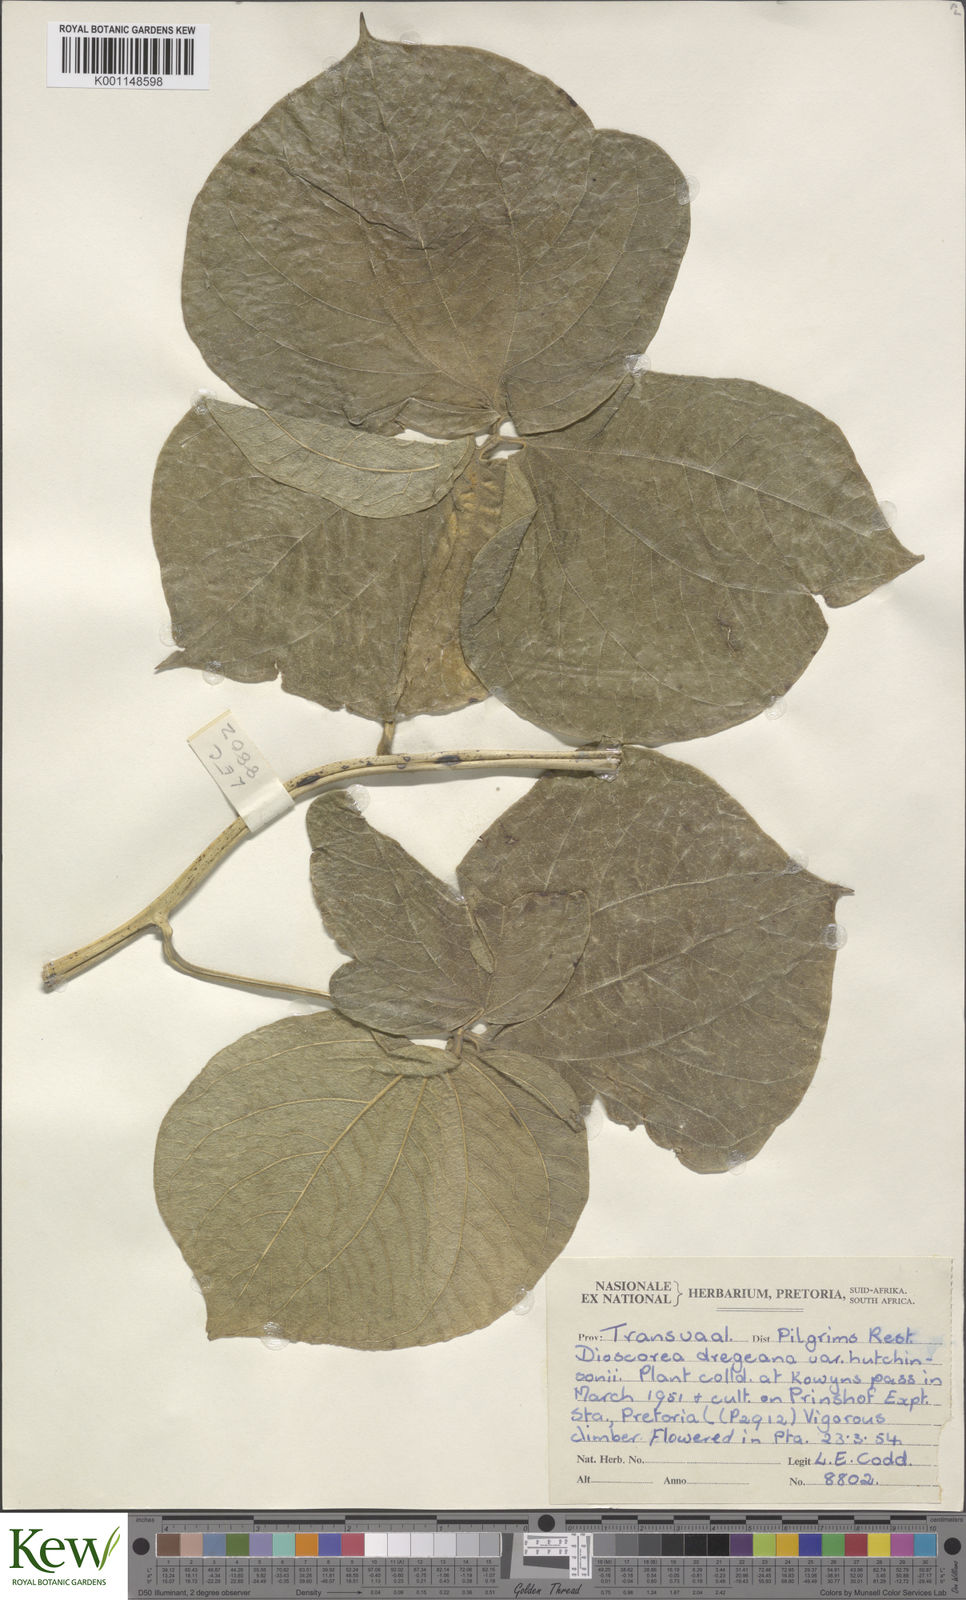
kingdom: Plantae
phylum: Tracheophyta
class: Liliopsida
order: Dioscoreales
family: Dioscoreaceae
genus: Dioscorea
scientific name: Dioscorea dregeana
